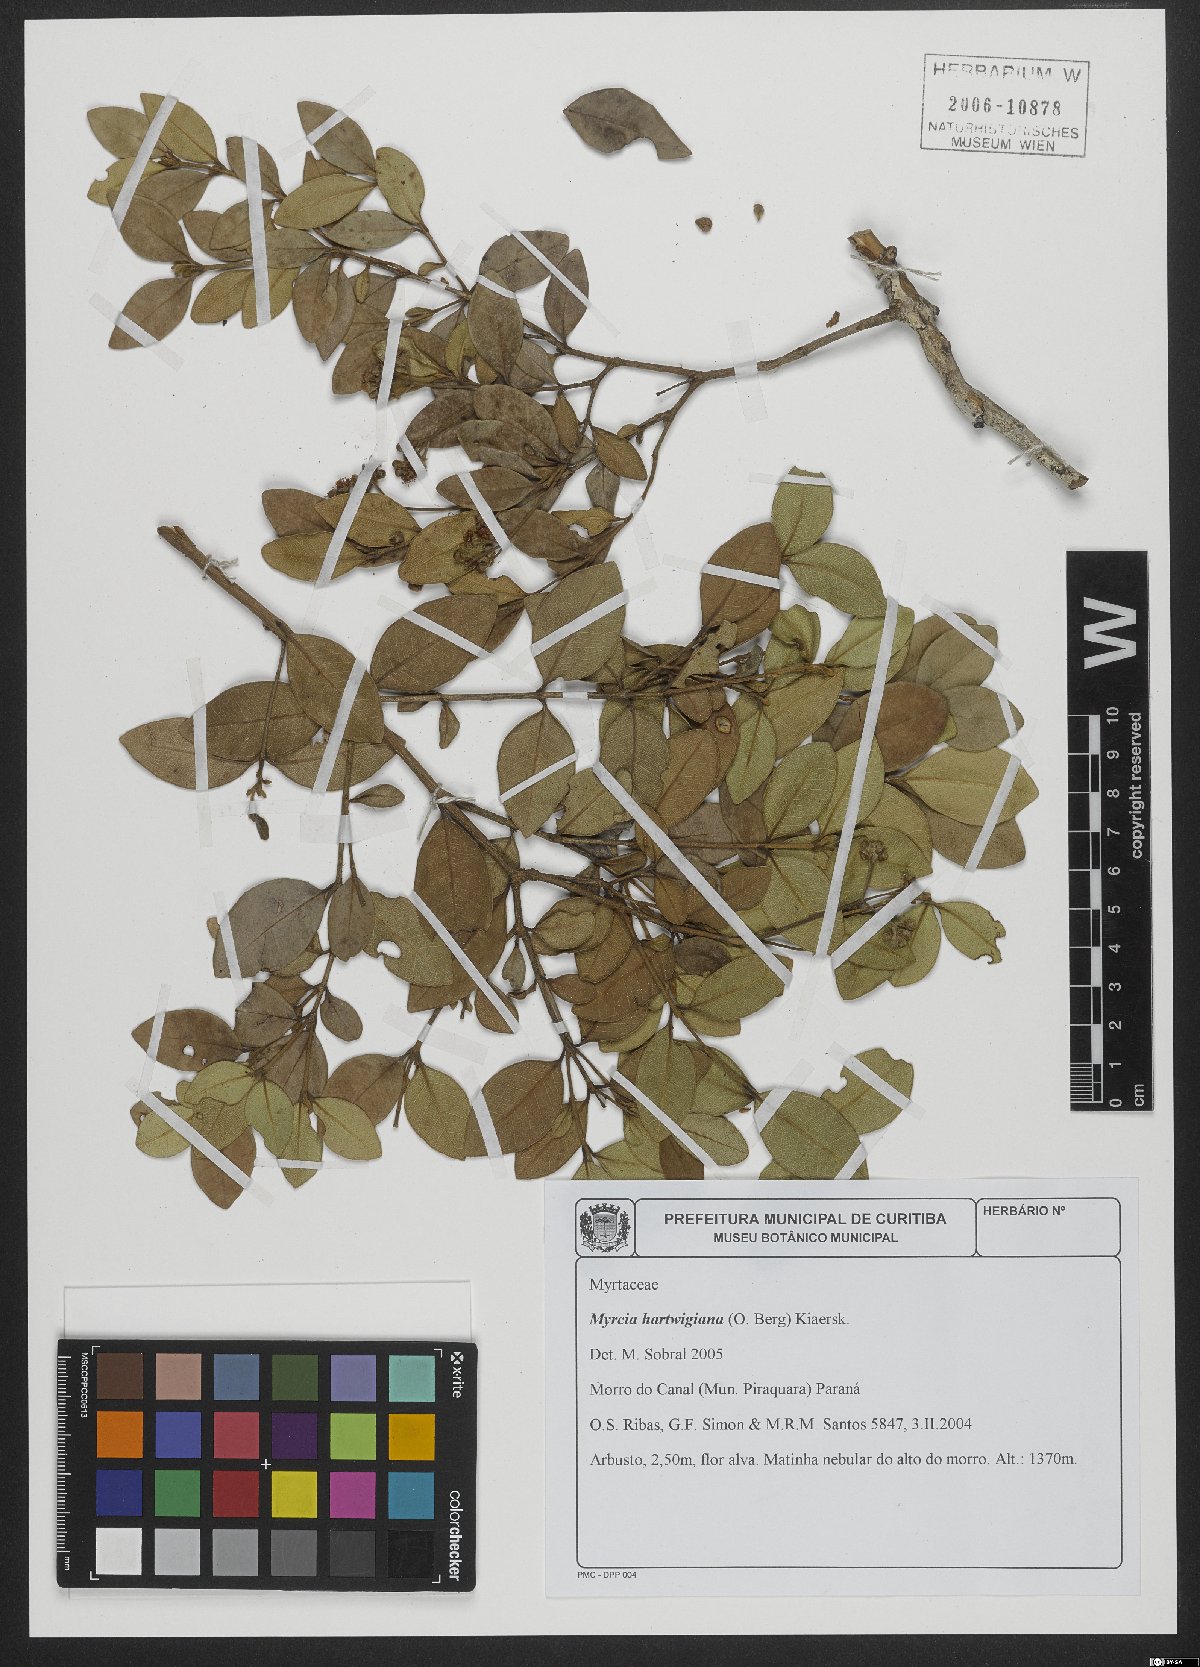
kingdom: Plantae
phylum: Tracheophyta
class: Magnoliopsida
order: Myrtales
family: Myrtaceae
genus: Myrcia
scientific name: Myrcia hartwegiana
